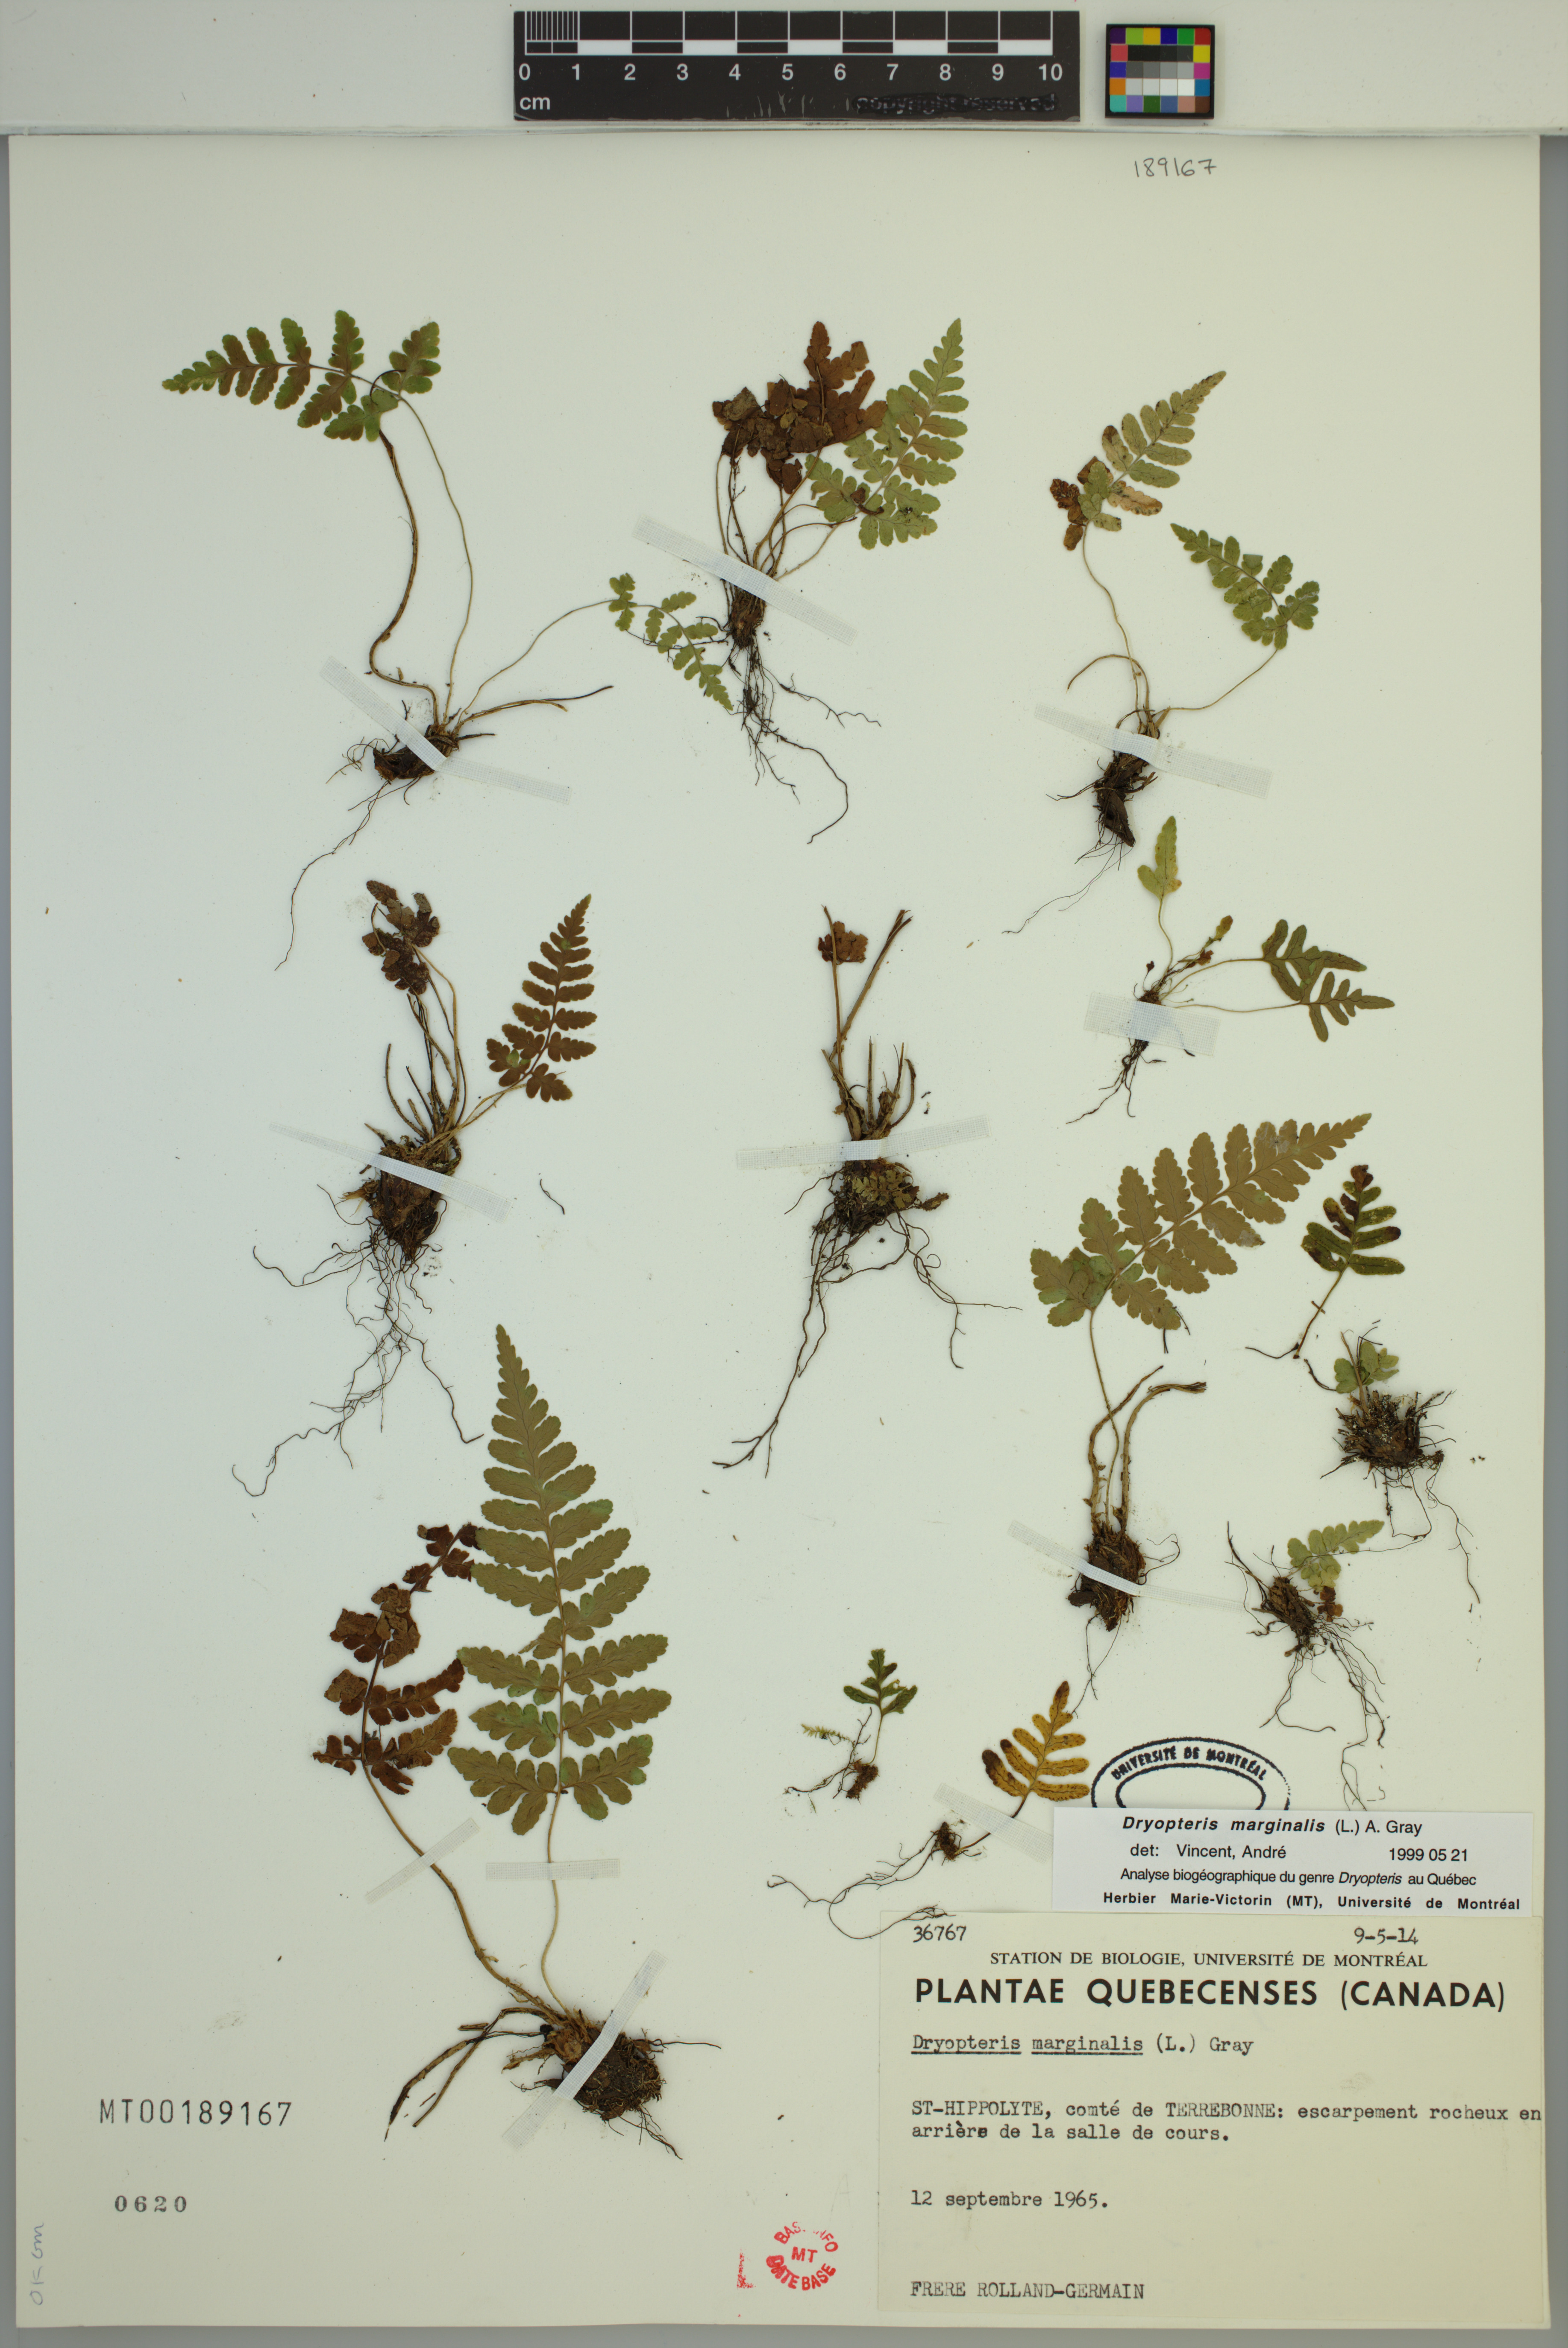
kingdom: Plantae
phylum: Tracheophyta
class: Polypodiopsida
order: Polypodiales
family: Dryopteridaceae
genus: Dryopteris
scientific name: Dryopteris marginalis
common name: Marginal wood fern
